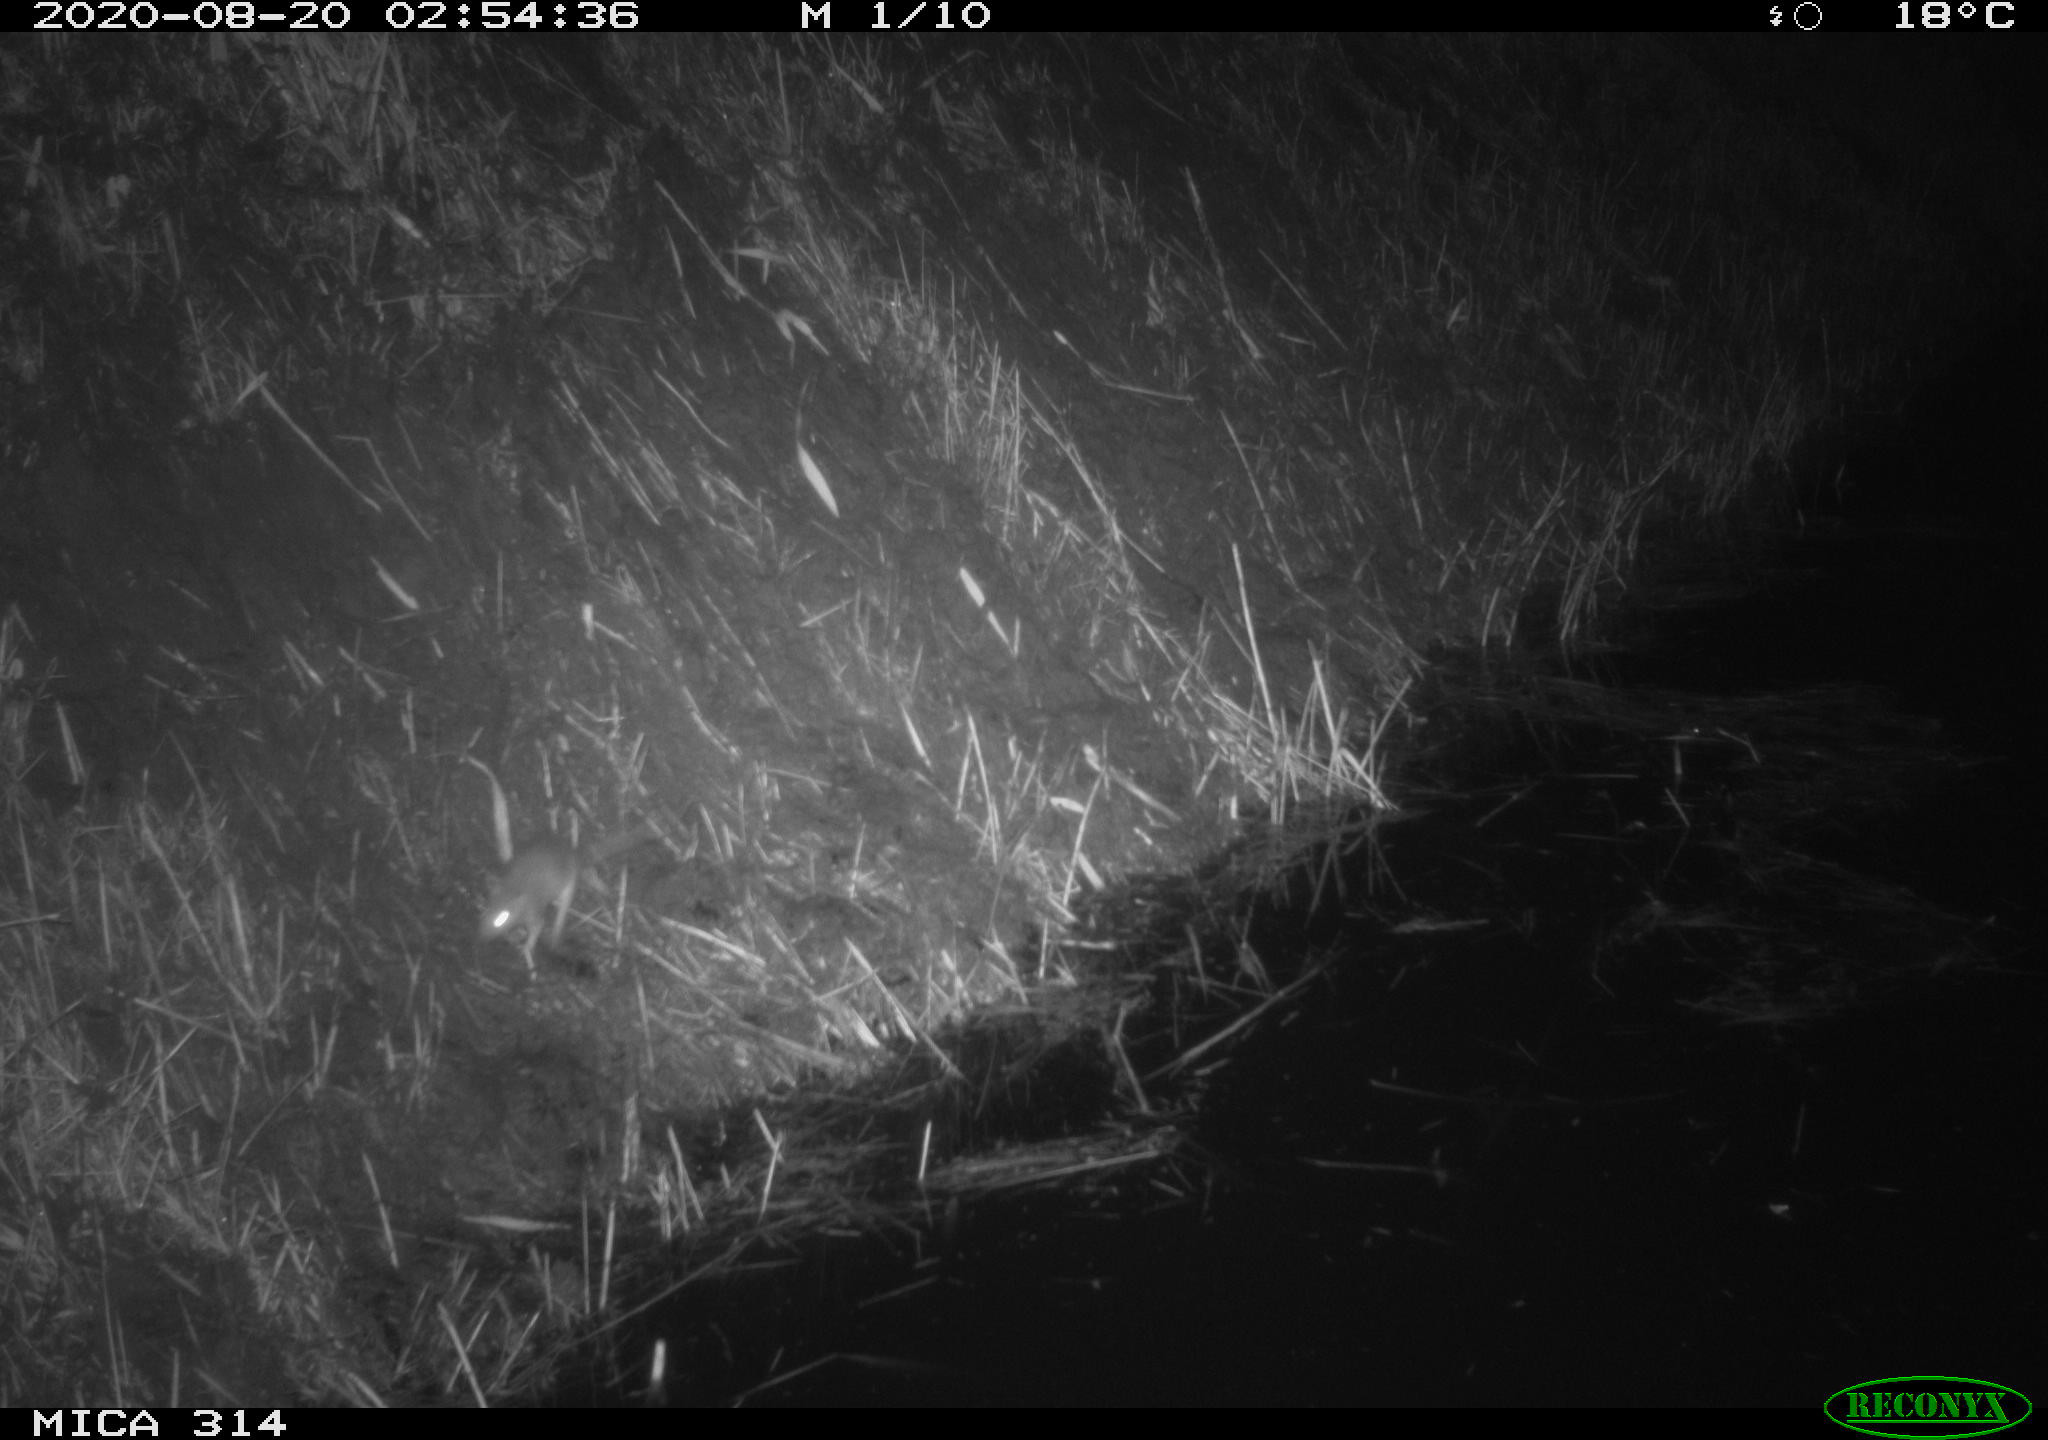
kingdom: Animalia
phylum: Chordata
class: Mammalia
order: Rodentia
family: Muridae
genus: Rattus
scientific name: Rattus norvegicus
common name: Brown rat
